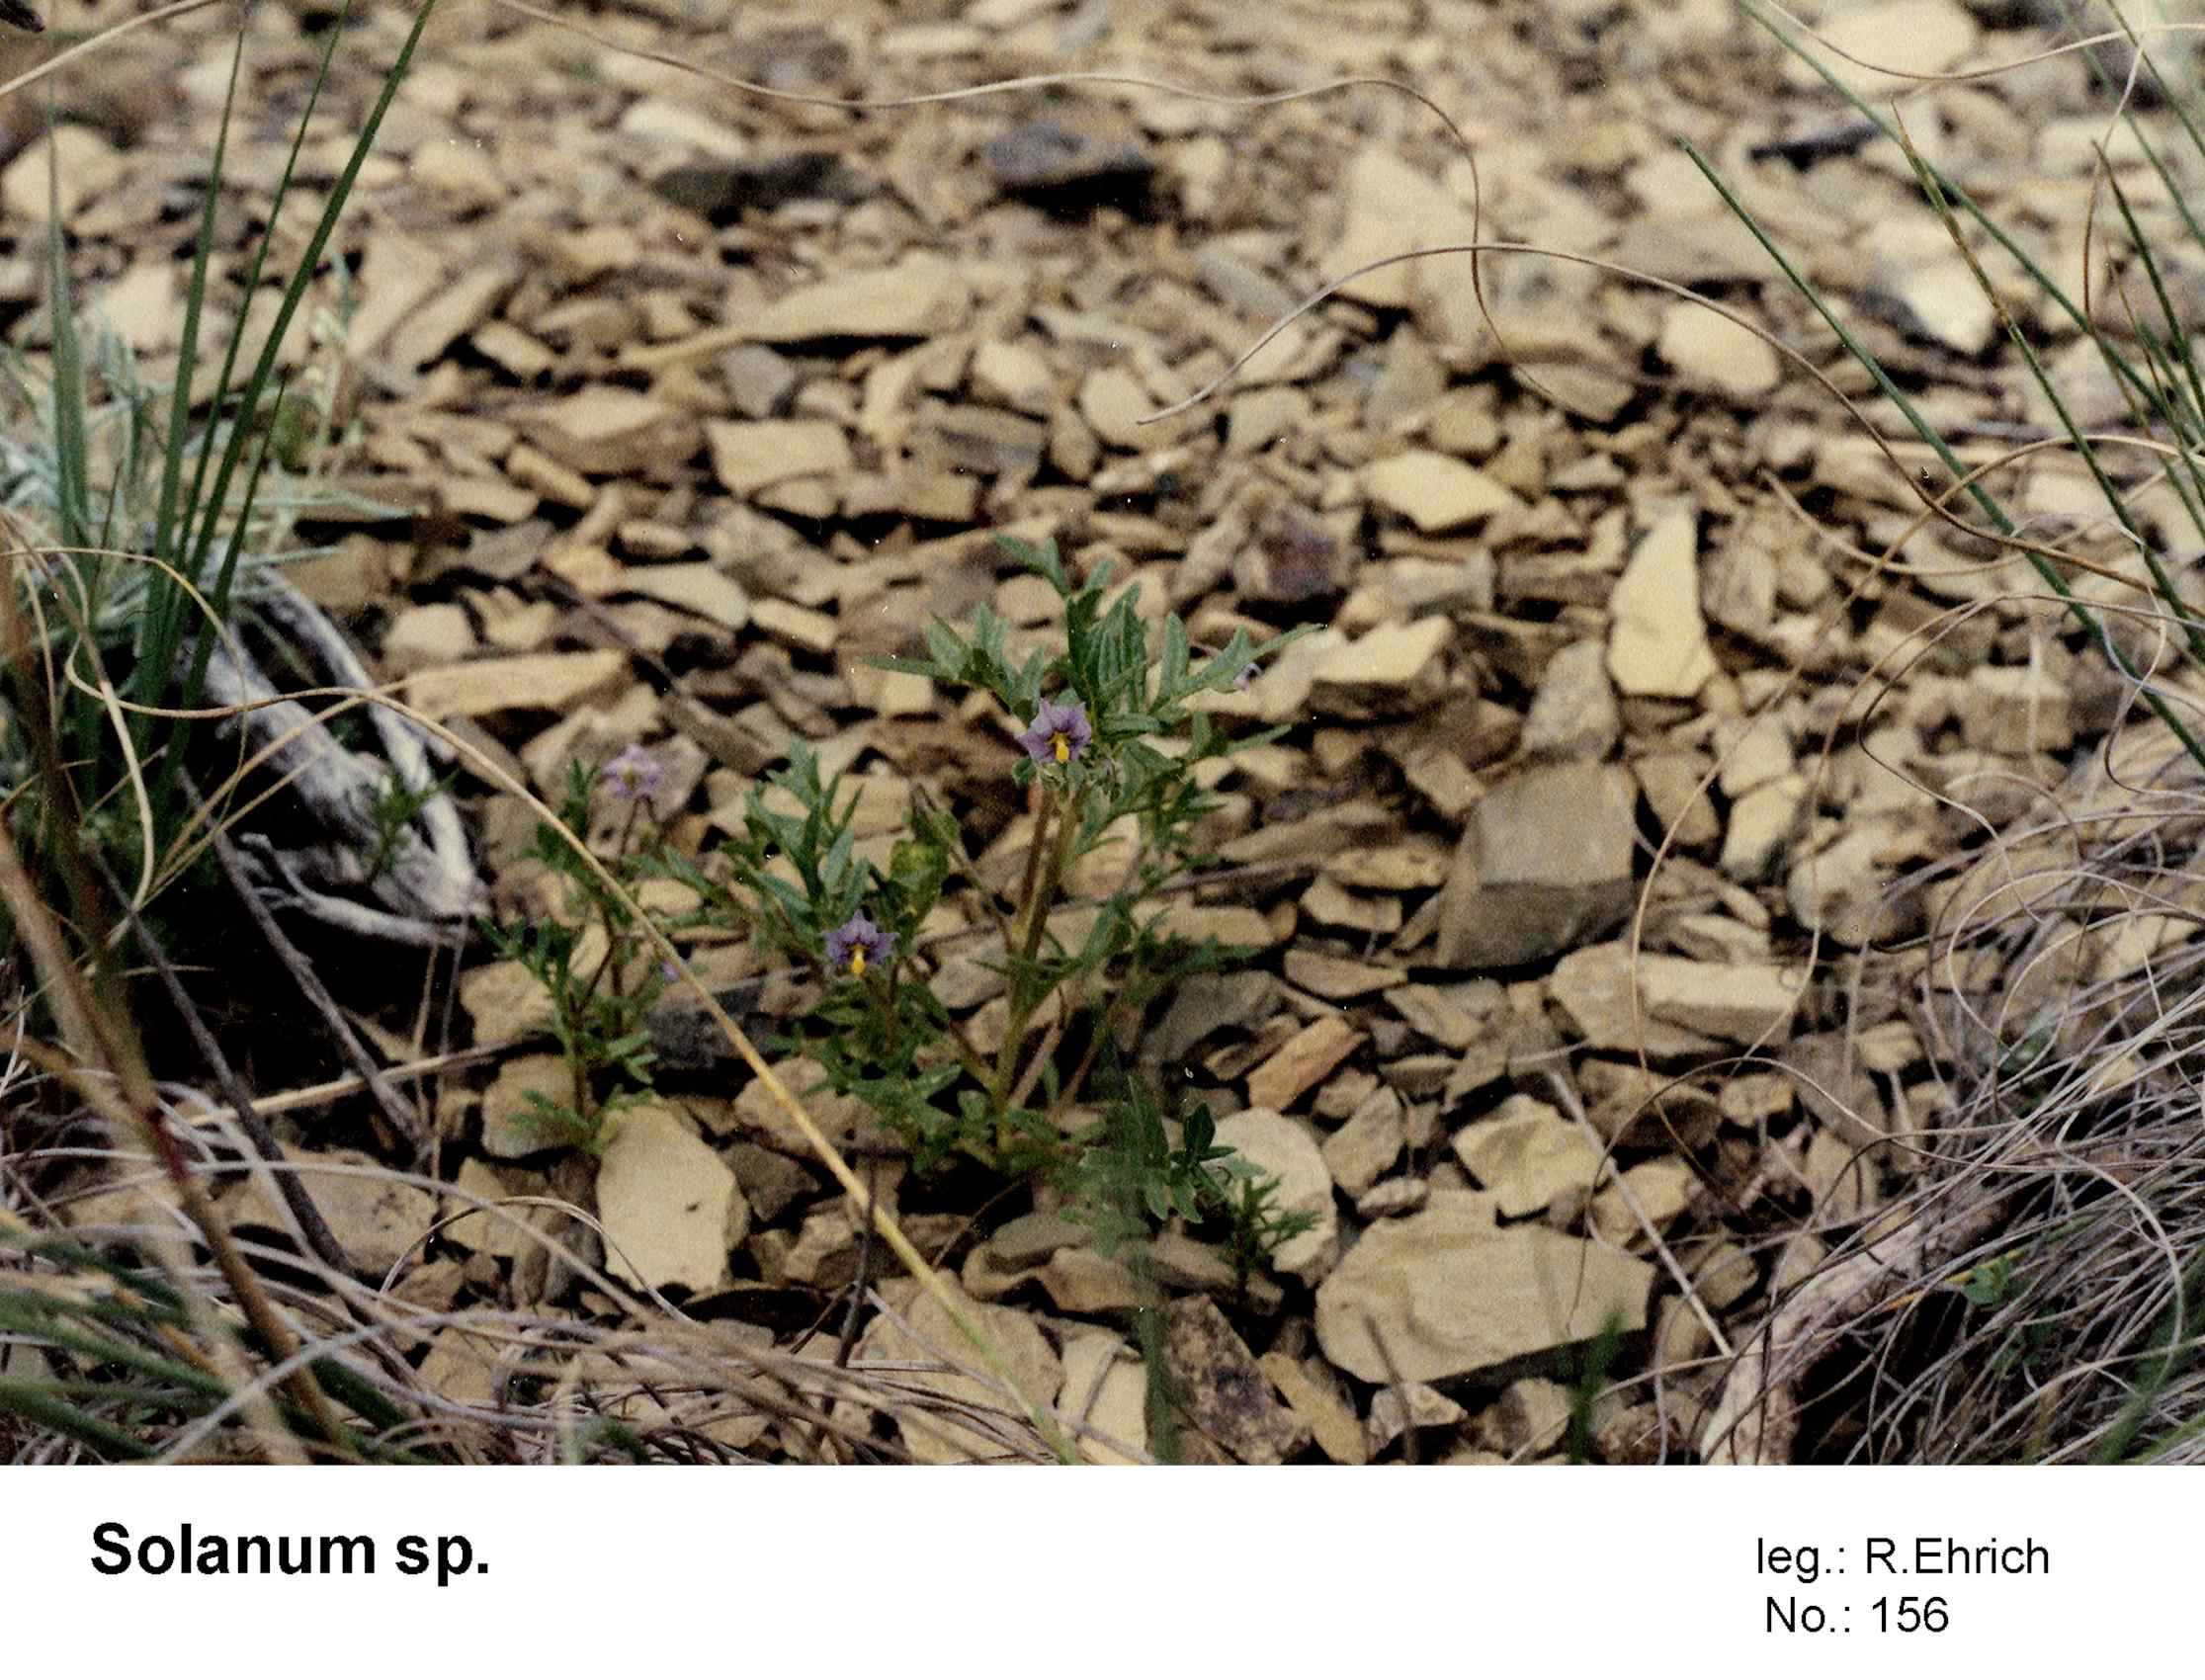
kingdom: Plantae
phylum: Tracheophyta
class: Magnoliopsida
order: Solanales
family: Solanaceae
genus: Solanum
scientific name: Solanum gilioides
